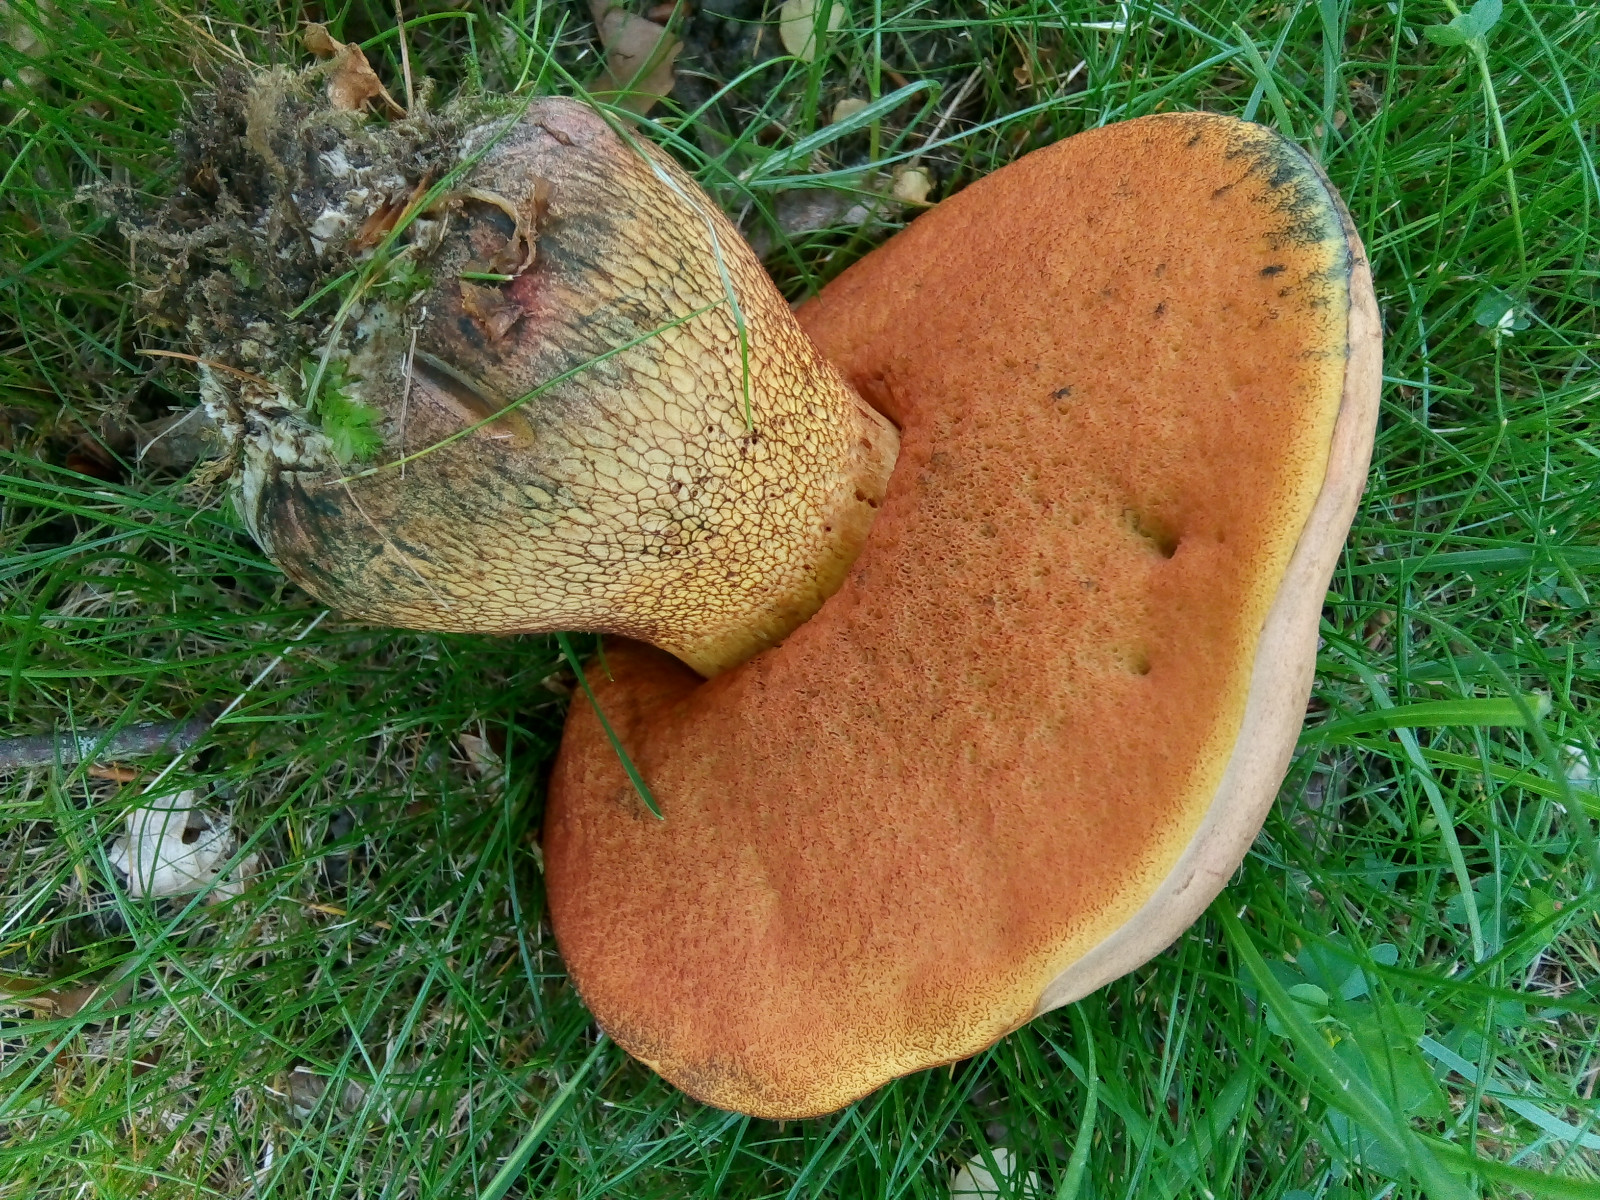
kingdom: Fungi
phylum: Basidiomycota
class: Agaricomycetes
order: Boletales
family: Boletaceae
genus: Suillellus
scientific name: Suillellus luridus
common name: netstokket indigorørhat
